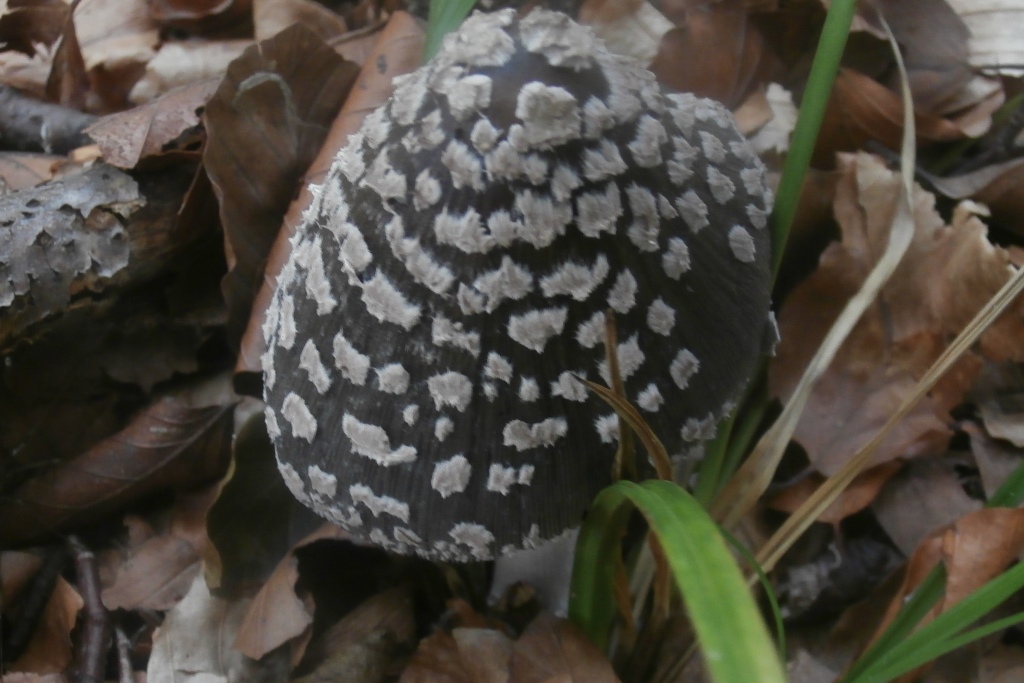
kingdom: Fungi
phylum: Basidiomycota
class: Agaricomycetes
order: Agaricales
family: Psathyrellaceae
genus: Coprinopsis
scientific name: Coprinopsis picacea
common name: skade-blækhat
